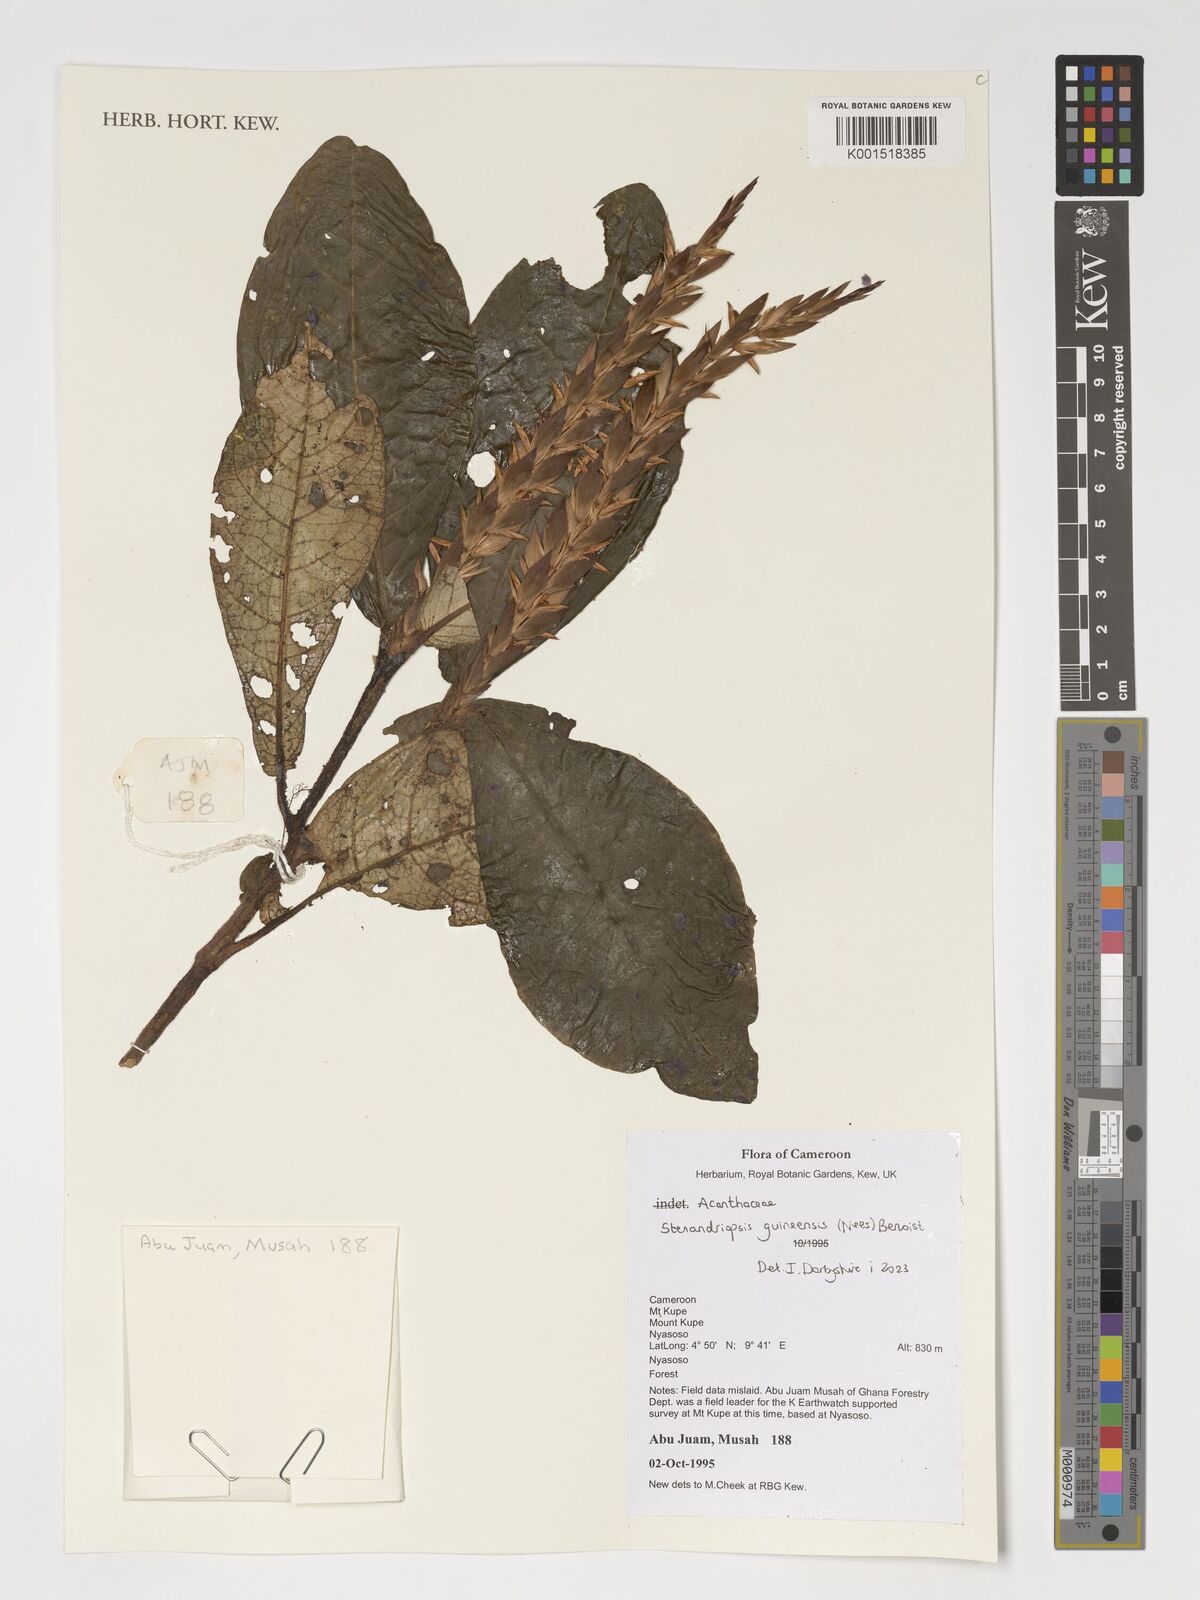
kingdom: Plantae
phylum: Tracheophyta
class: Magnoliopsida
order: Lamiales
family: Acanthaceae
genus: Stenandriopsis
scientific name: Stenandriopsis guineensis
